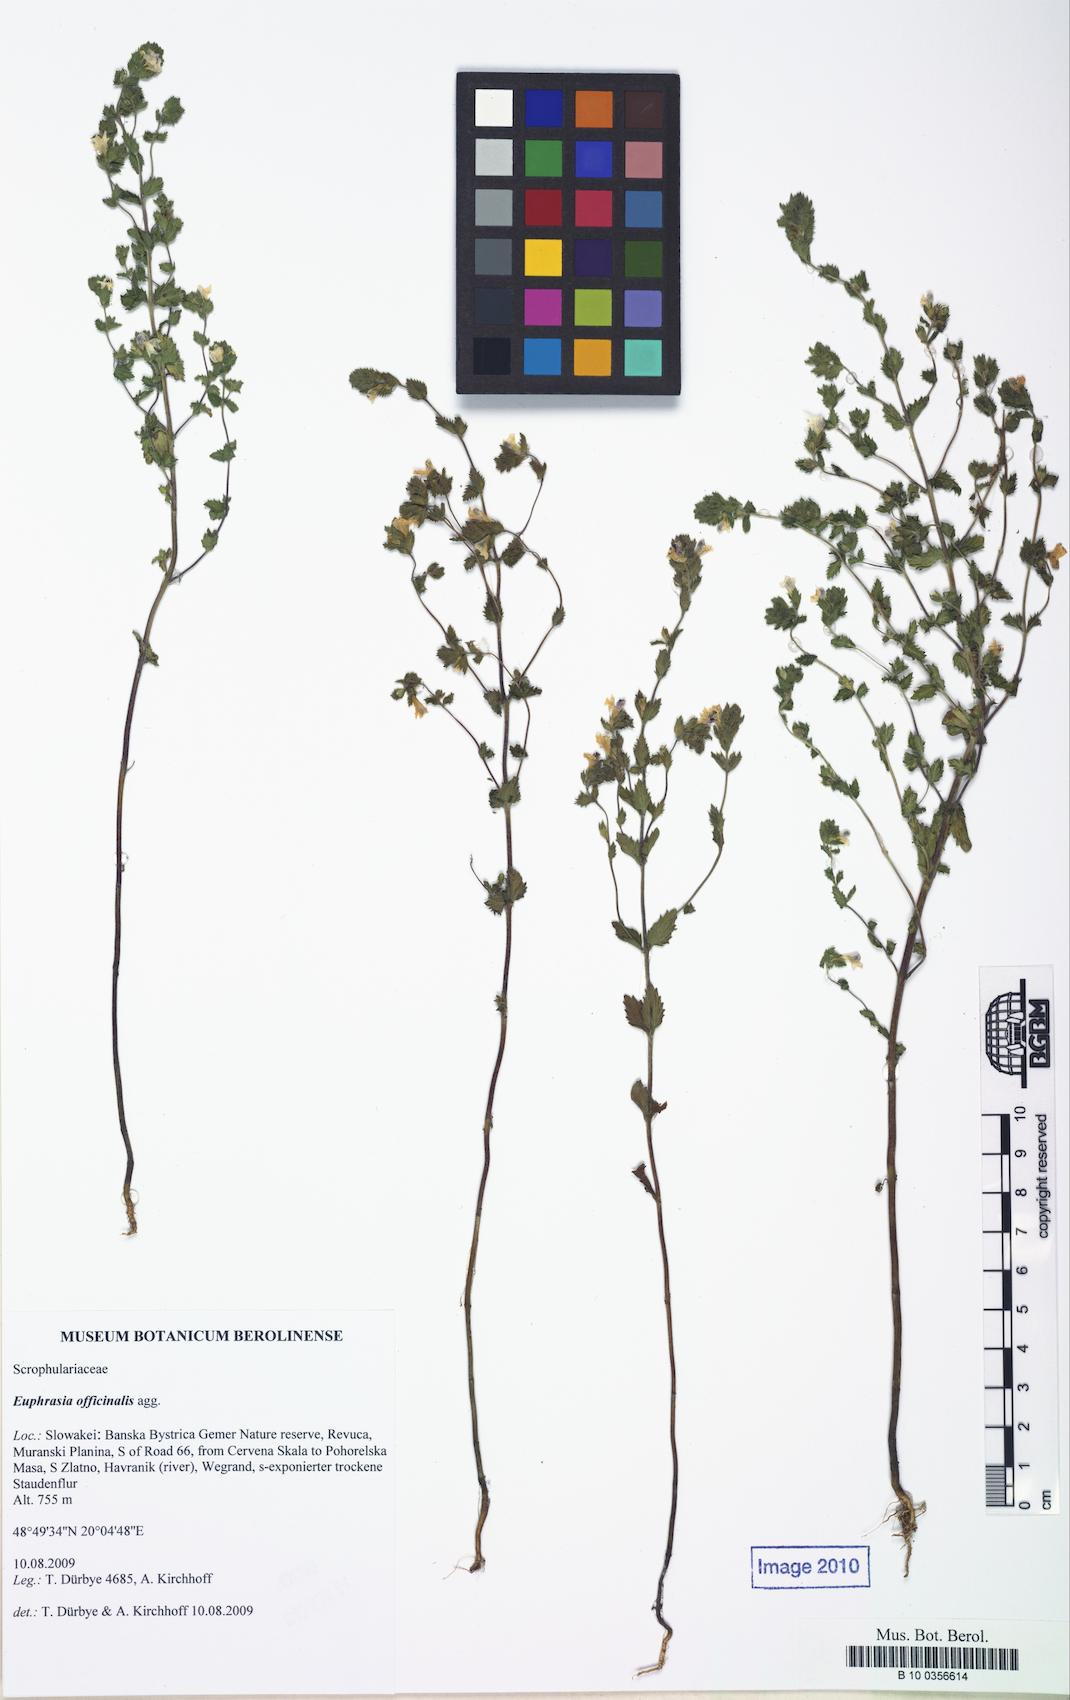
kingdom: Plantae
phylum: Tracheophyta
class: Magnoliopsida
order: Lamiales
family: Orobanchaceae
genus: Euphrasia
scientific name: Euphrasia
